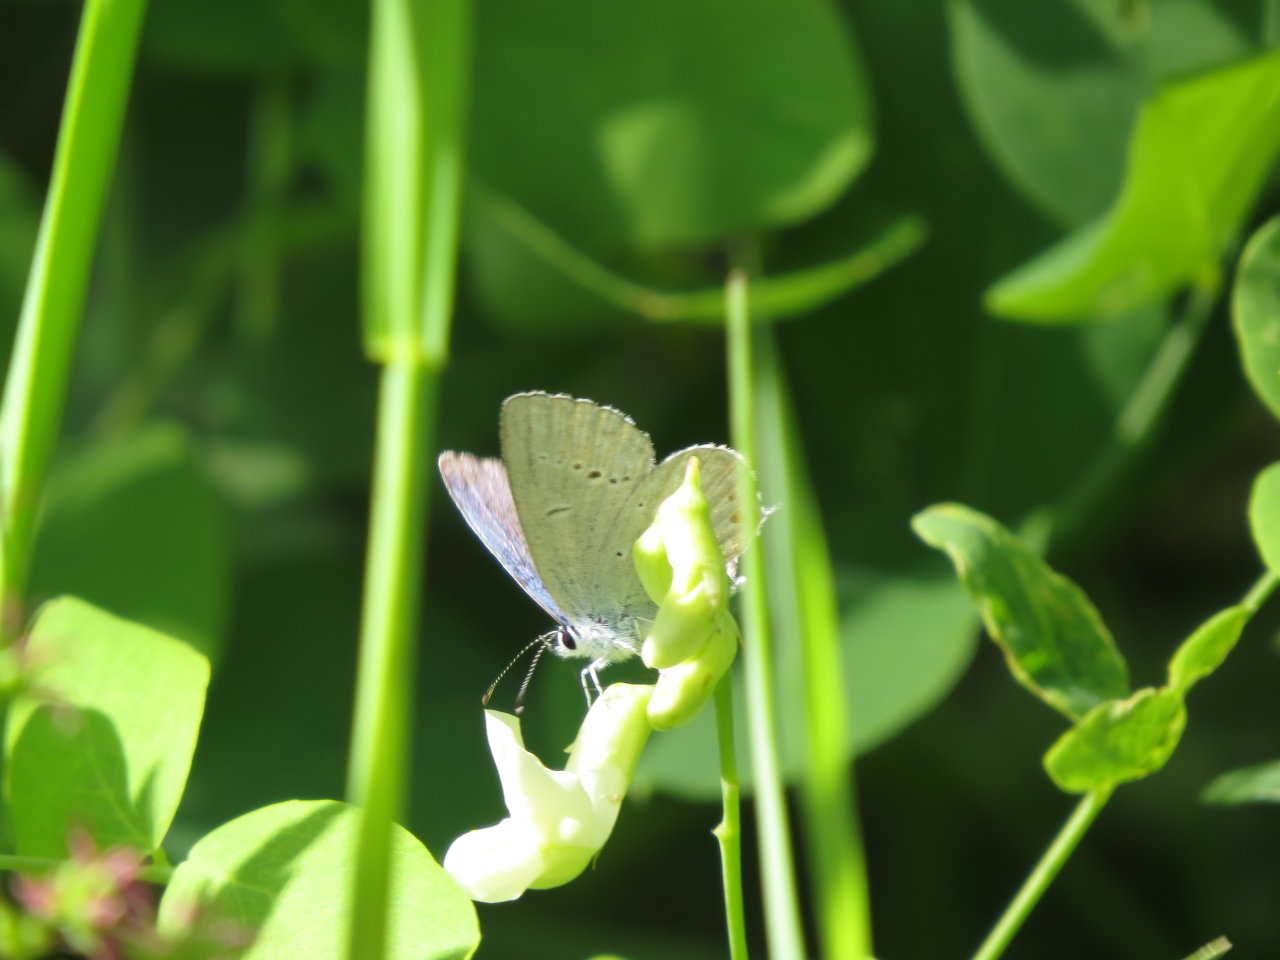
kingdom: Animalia
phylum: Arthropoda
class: Insecta
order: Lepidoptera
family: Lycaenidae
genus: Elkalyce
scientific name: Elkalyce amyntula
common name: Western Tailed-Blue
